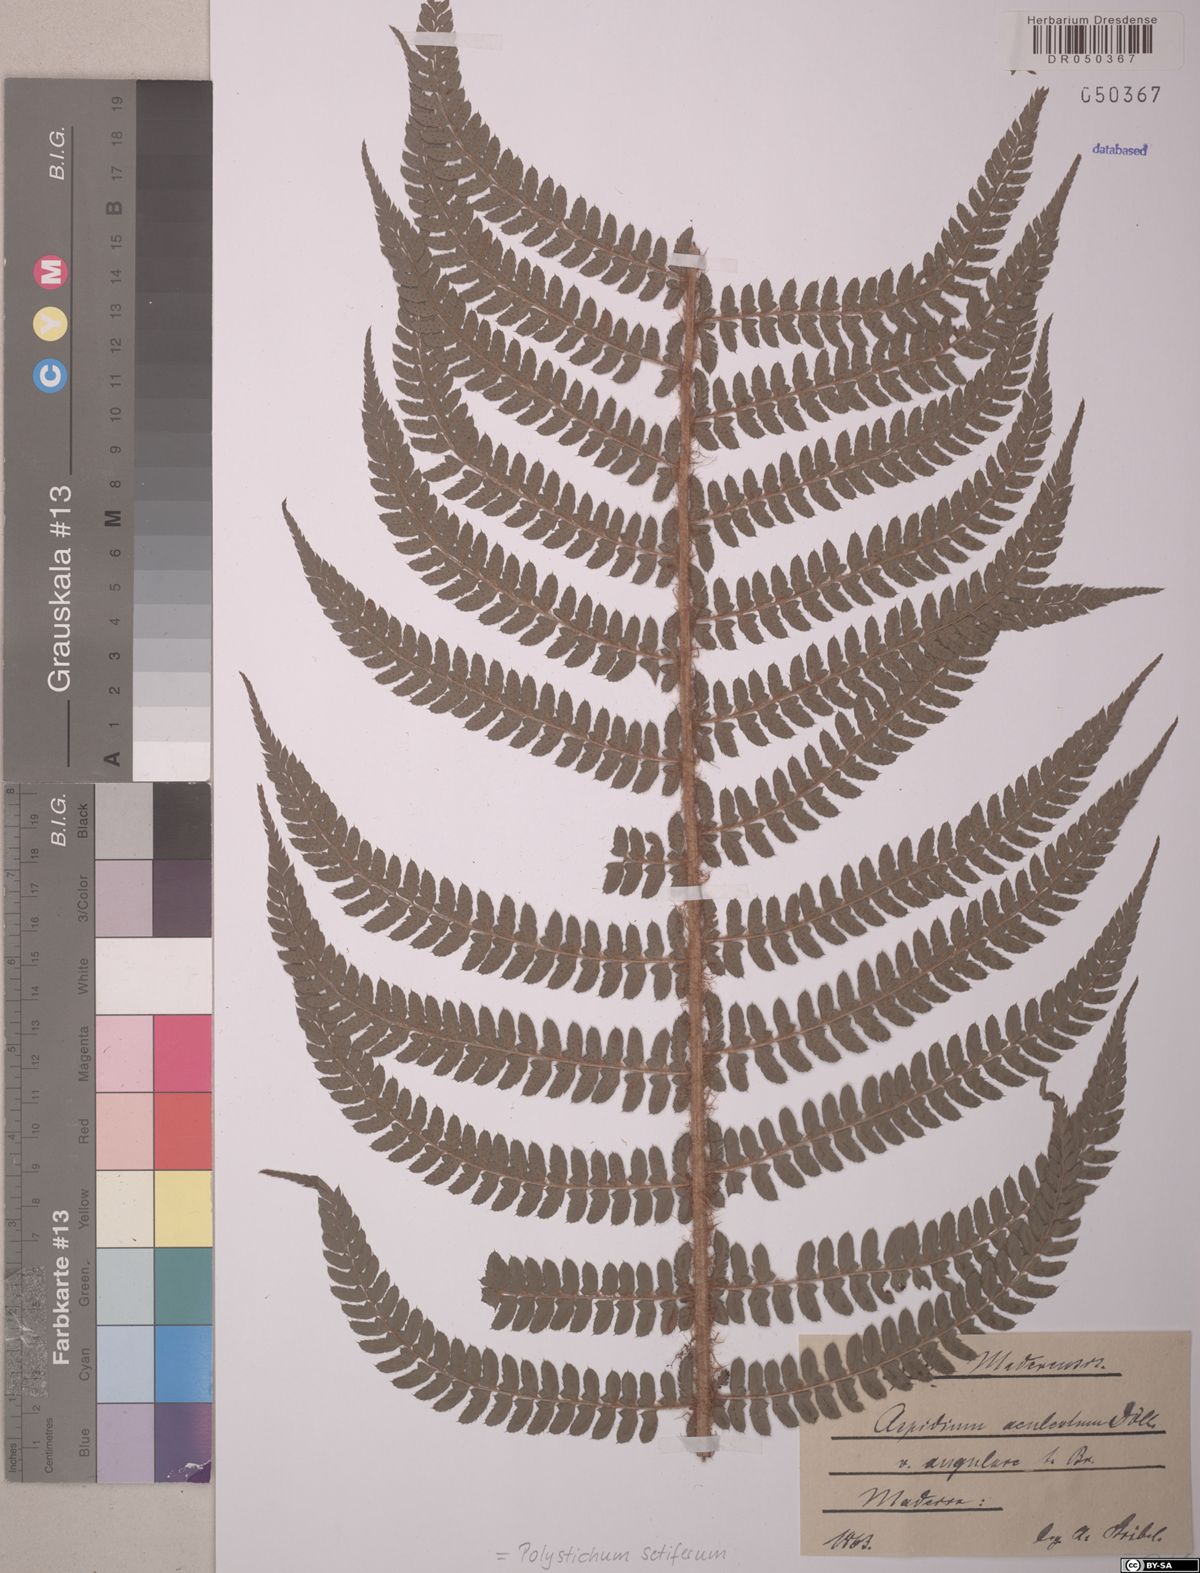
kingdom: Plantae
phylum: Tracheophyta
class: Polypodiopsida
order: Polypodiales
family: Dryopteridaceae
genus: Polystichum
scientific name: Polystichum setiferum
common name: Soft shield-fern
